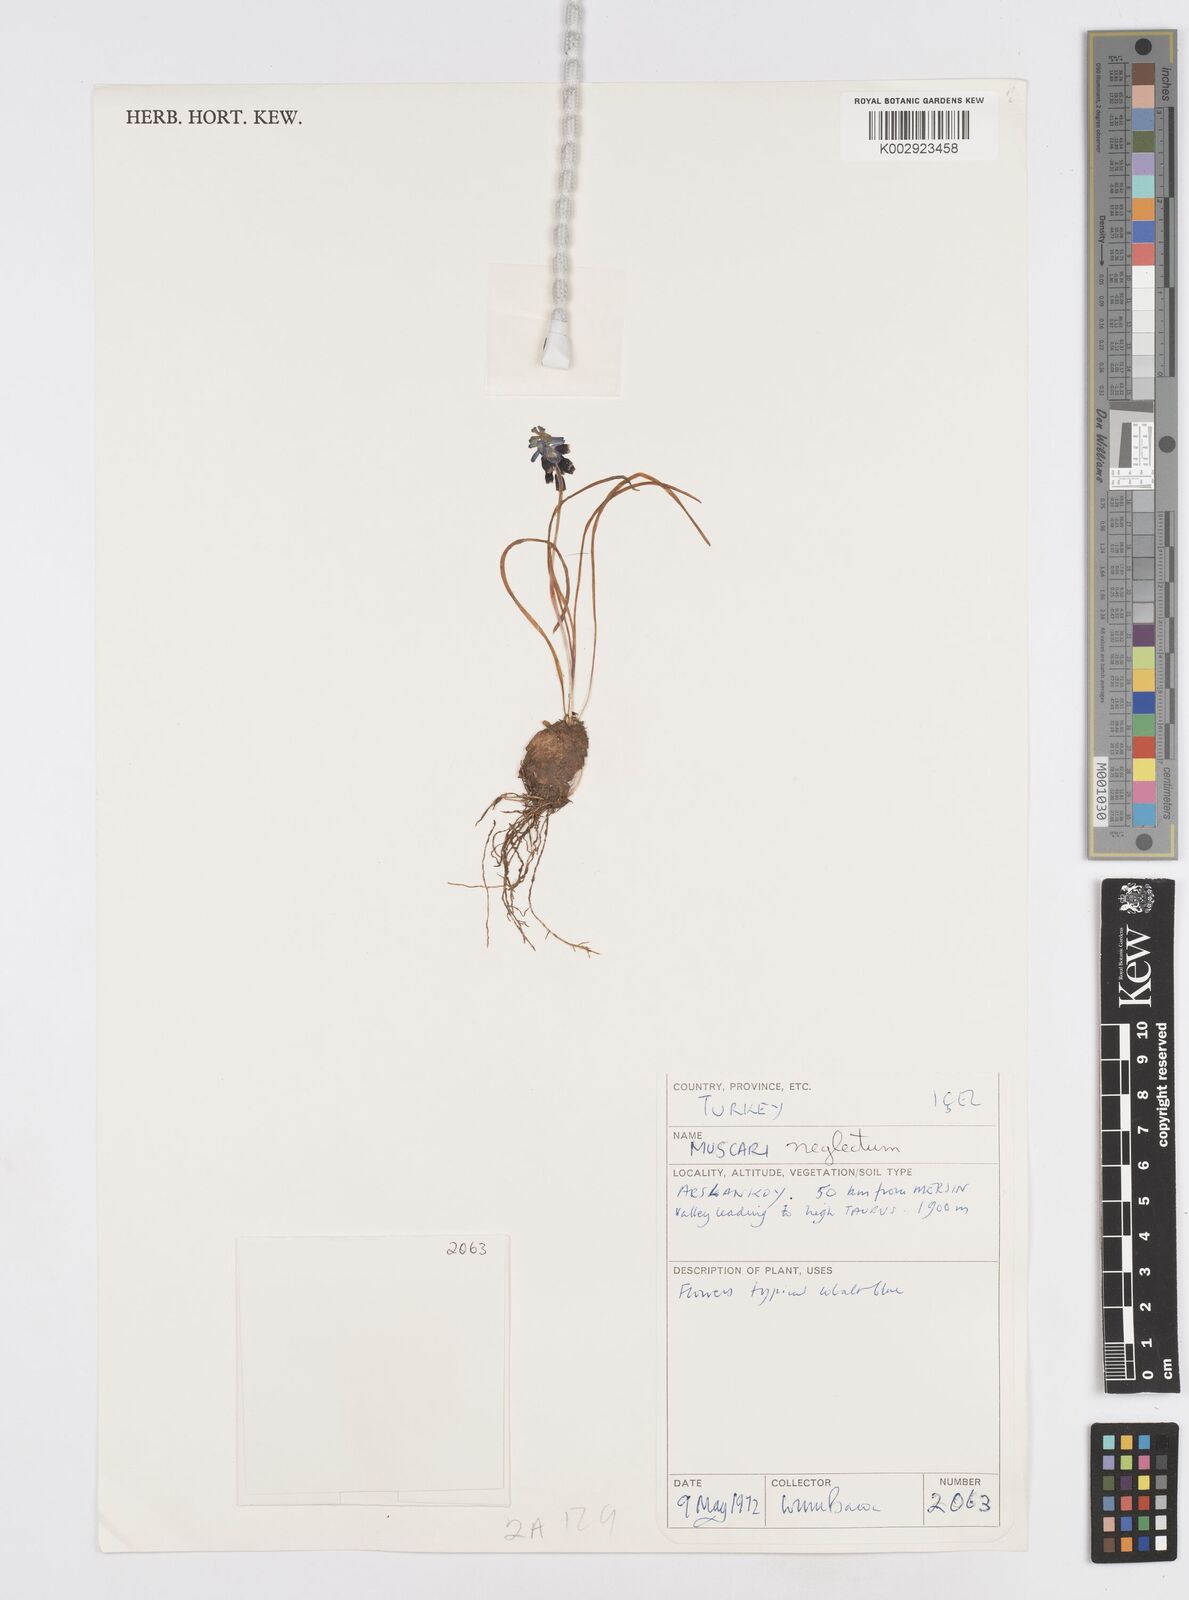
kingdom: Plantae
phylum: Tracheophyta
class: Liliopsida
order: Asparagales
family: Asparagaceae
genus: Muscari
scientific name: Muscari neglectum
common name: Grape-hyacinth
